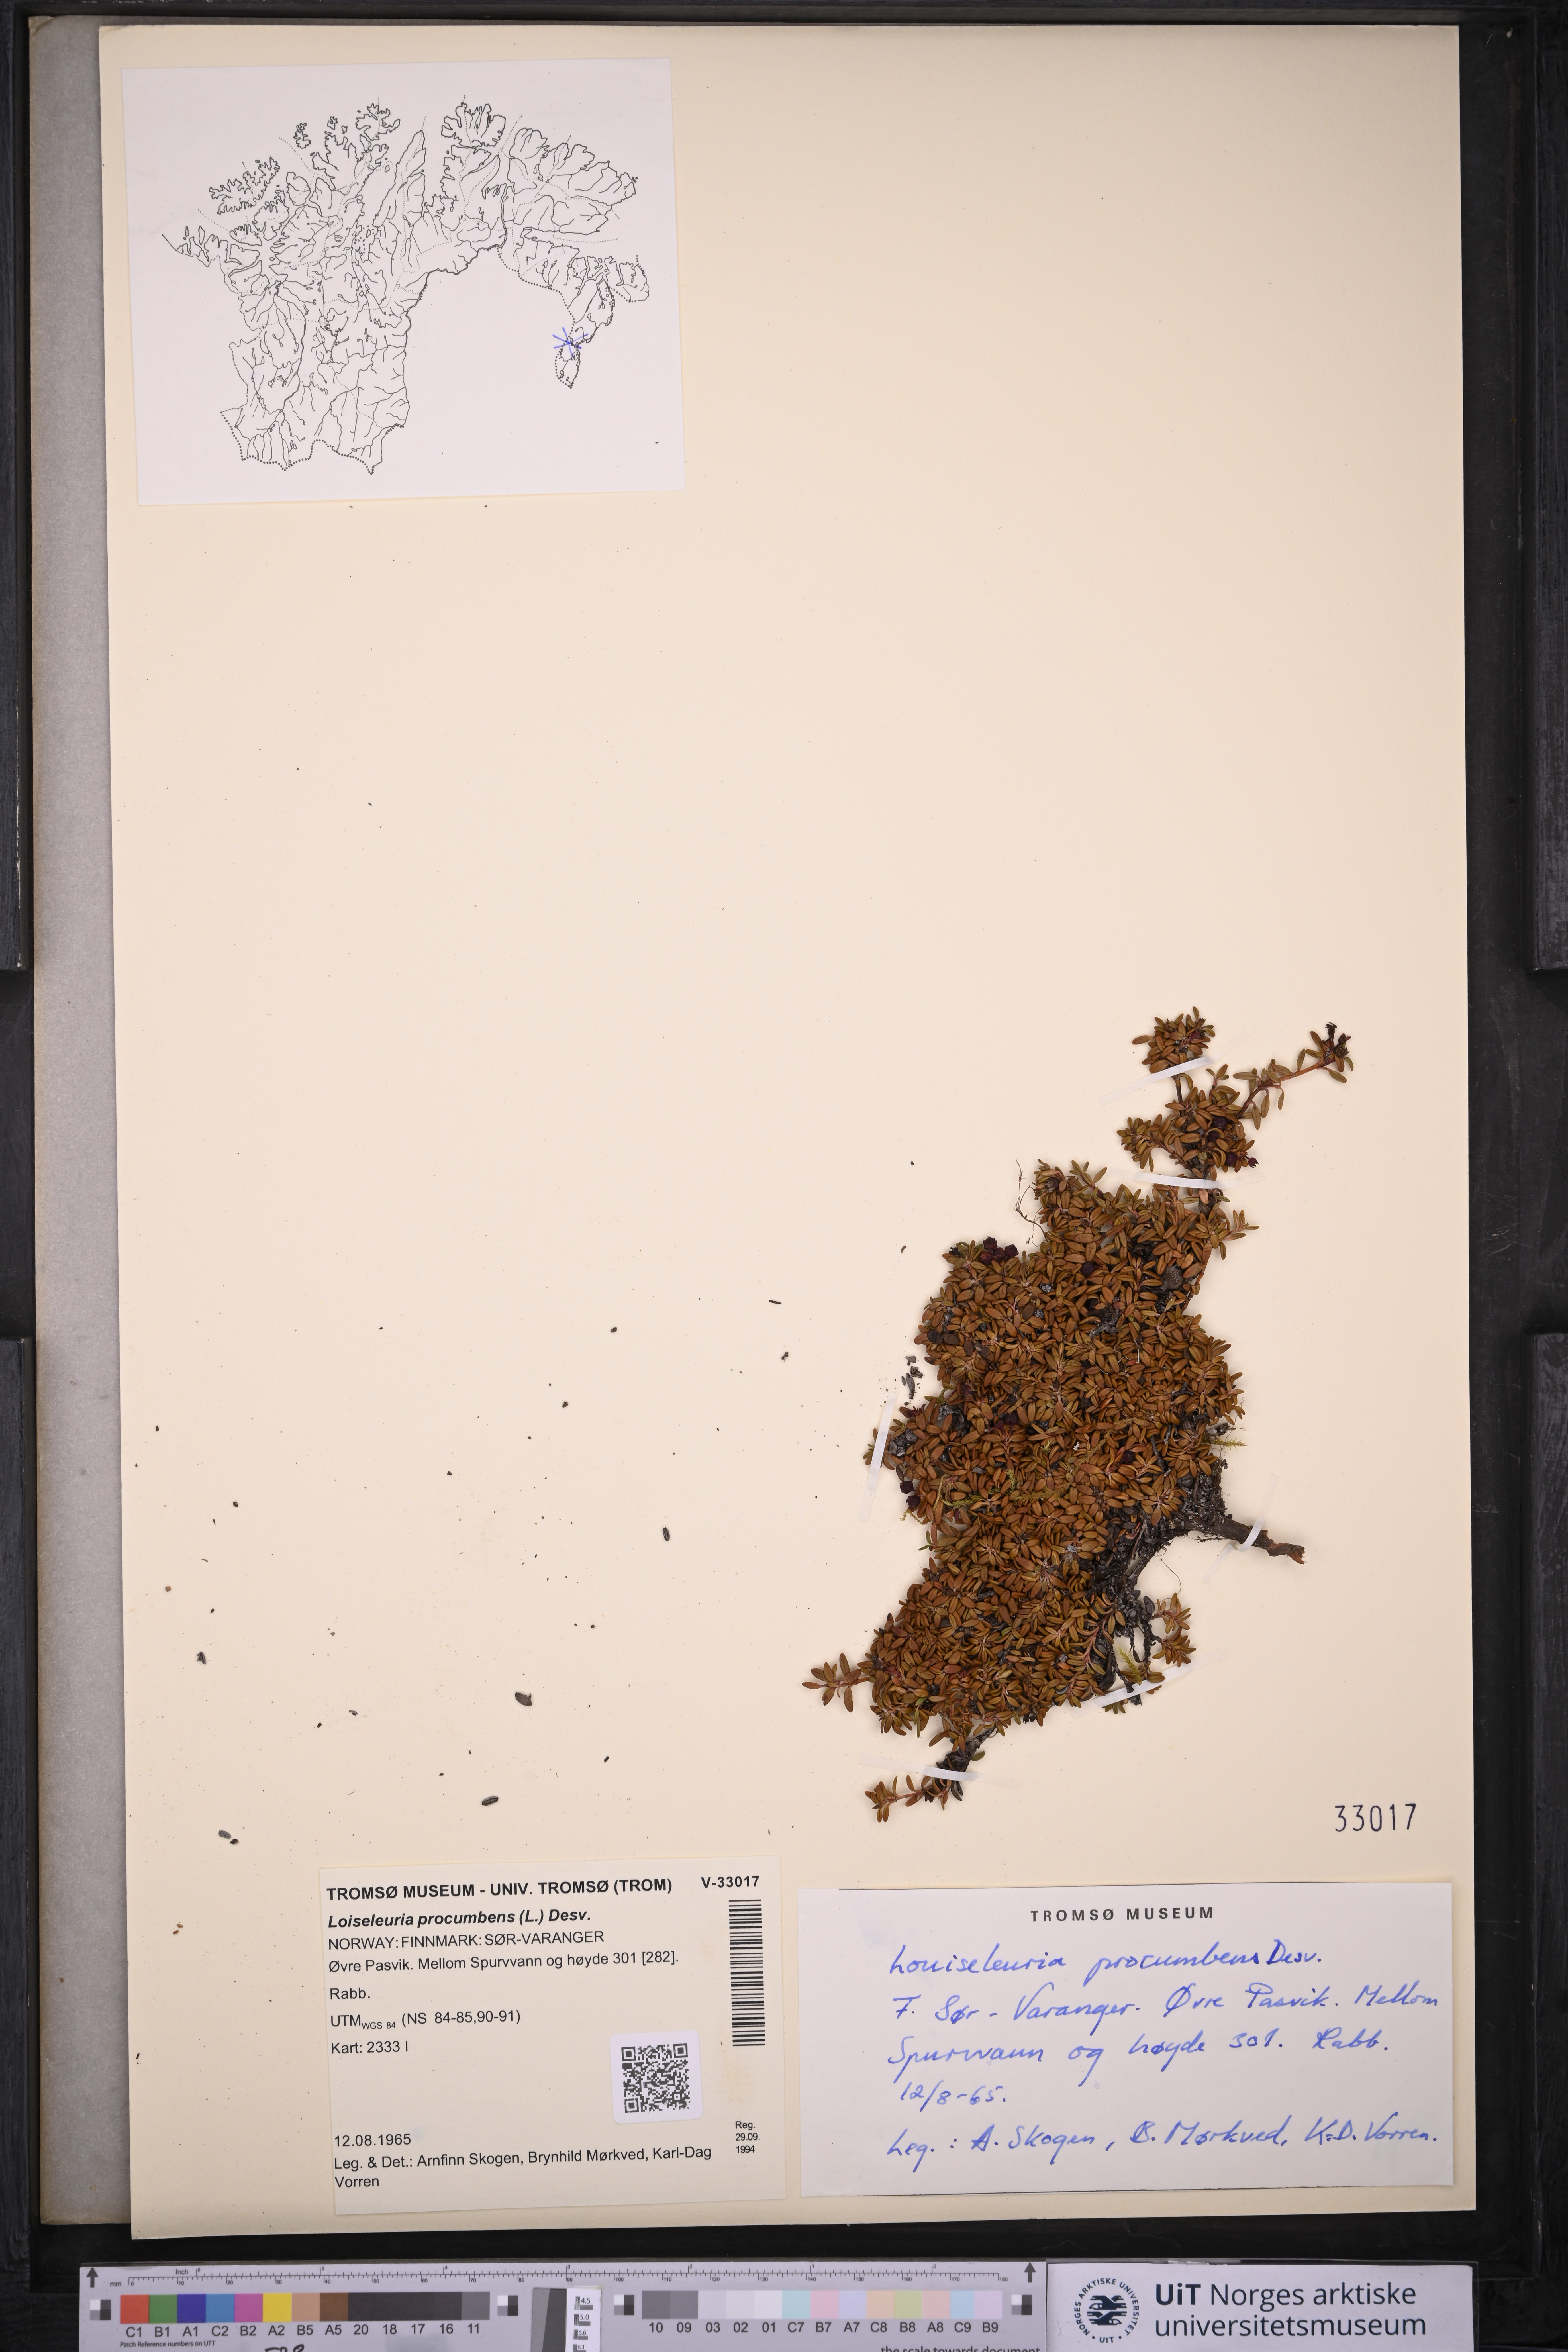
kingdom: Plantae
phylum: Tracheophyta
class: Magnoliopsida
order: Ericales
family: Ericaceae
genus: Kalmia
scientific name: Kalmia procumbens
